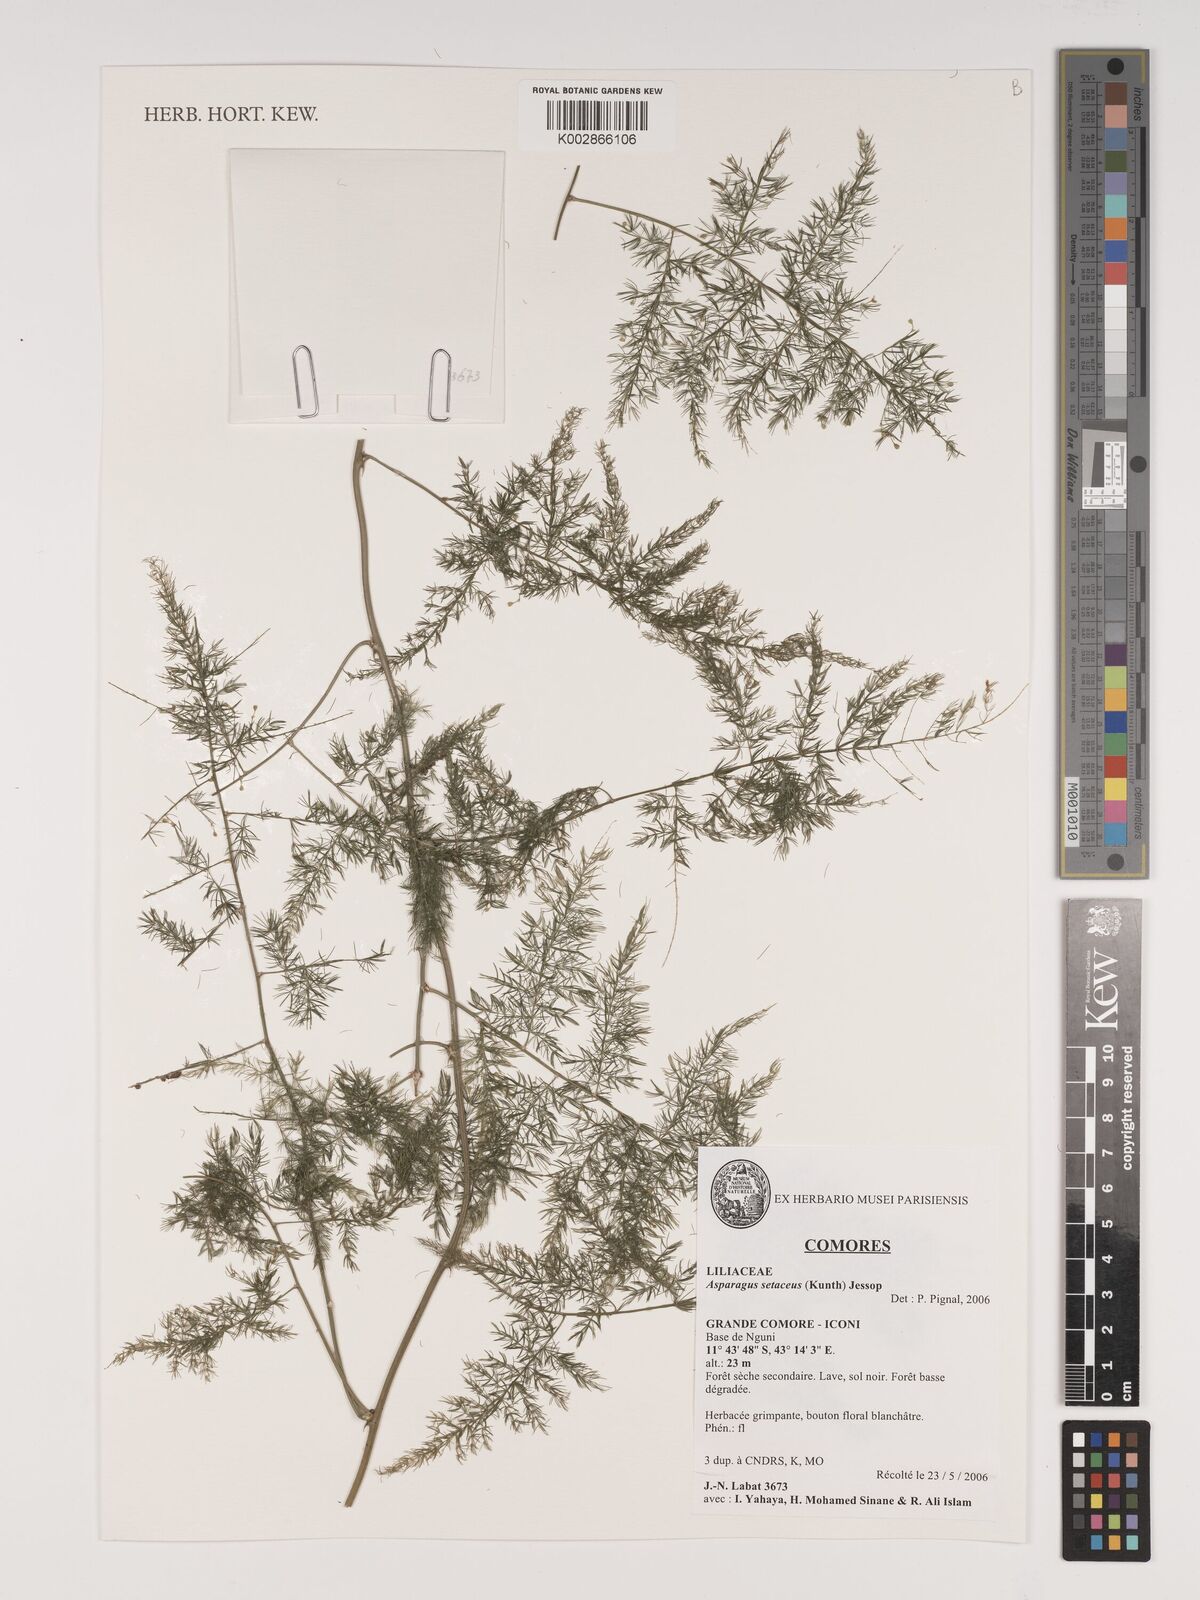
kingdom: Plantae
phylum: Tracheophyta
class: Liliopsida
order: Asparagales
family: Asparagaceae
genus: Asparagus
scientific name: Asparagus setaceus
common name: Common asparagus fern
